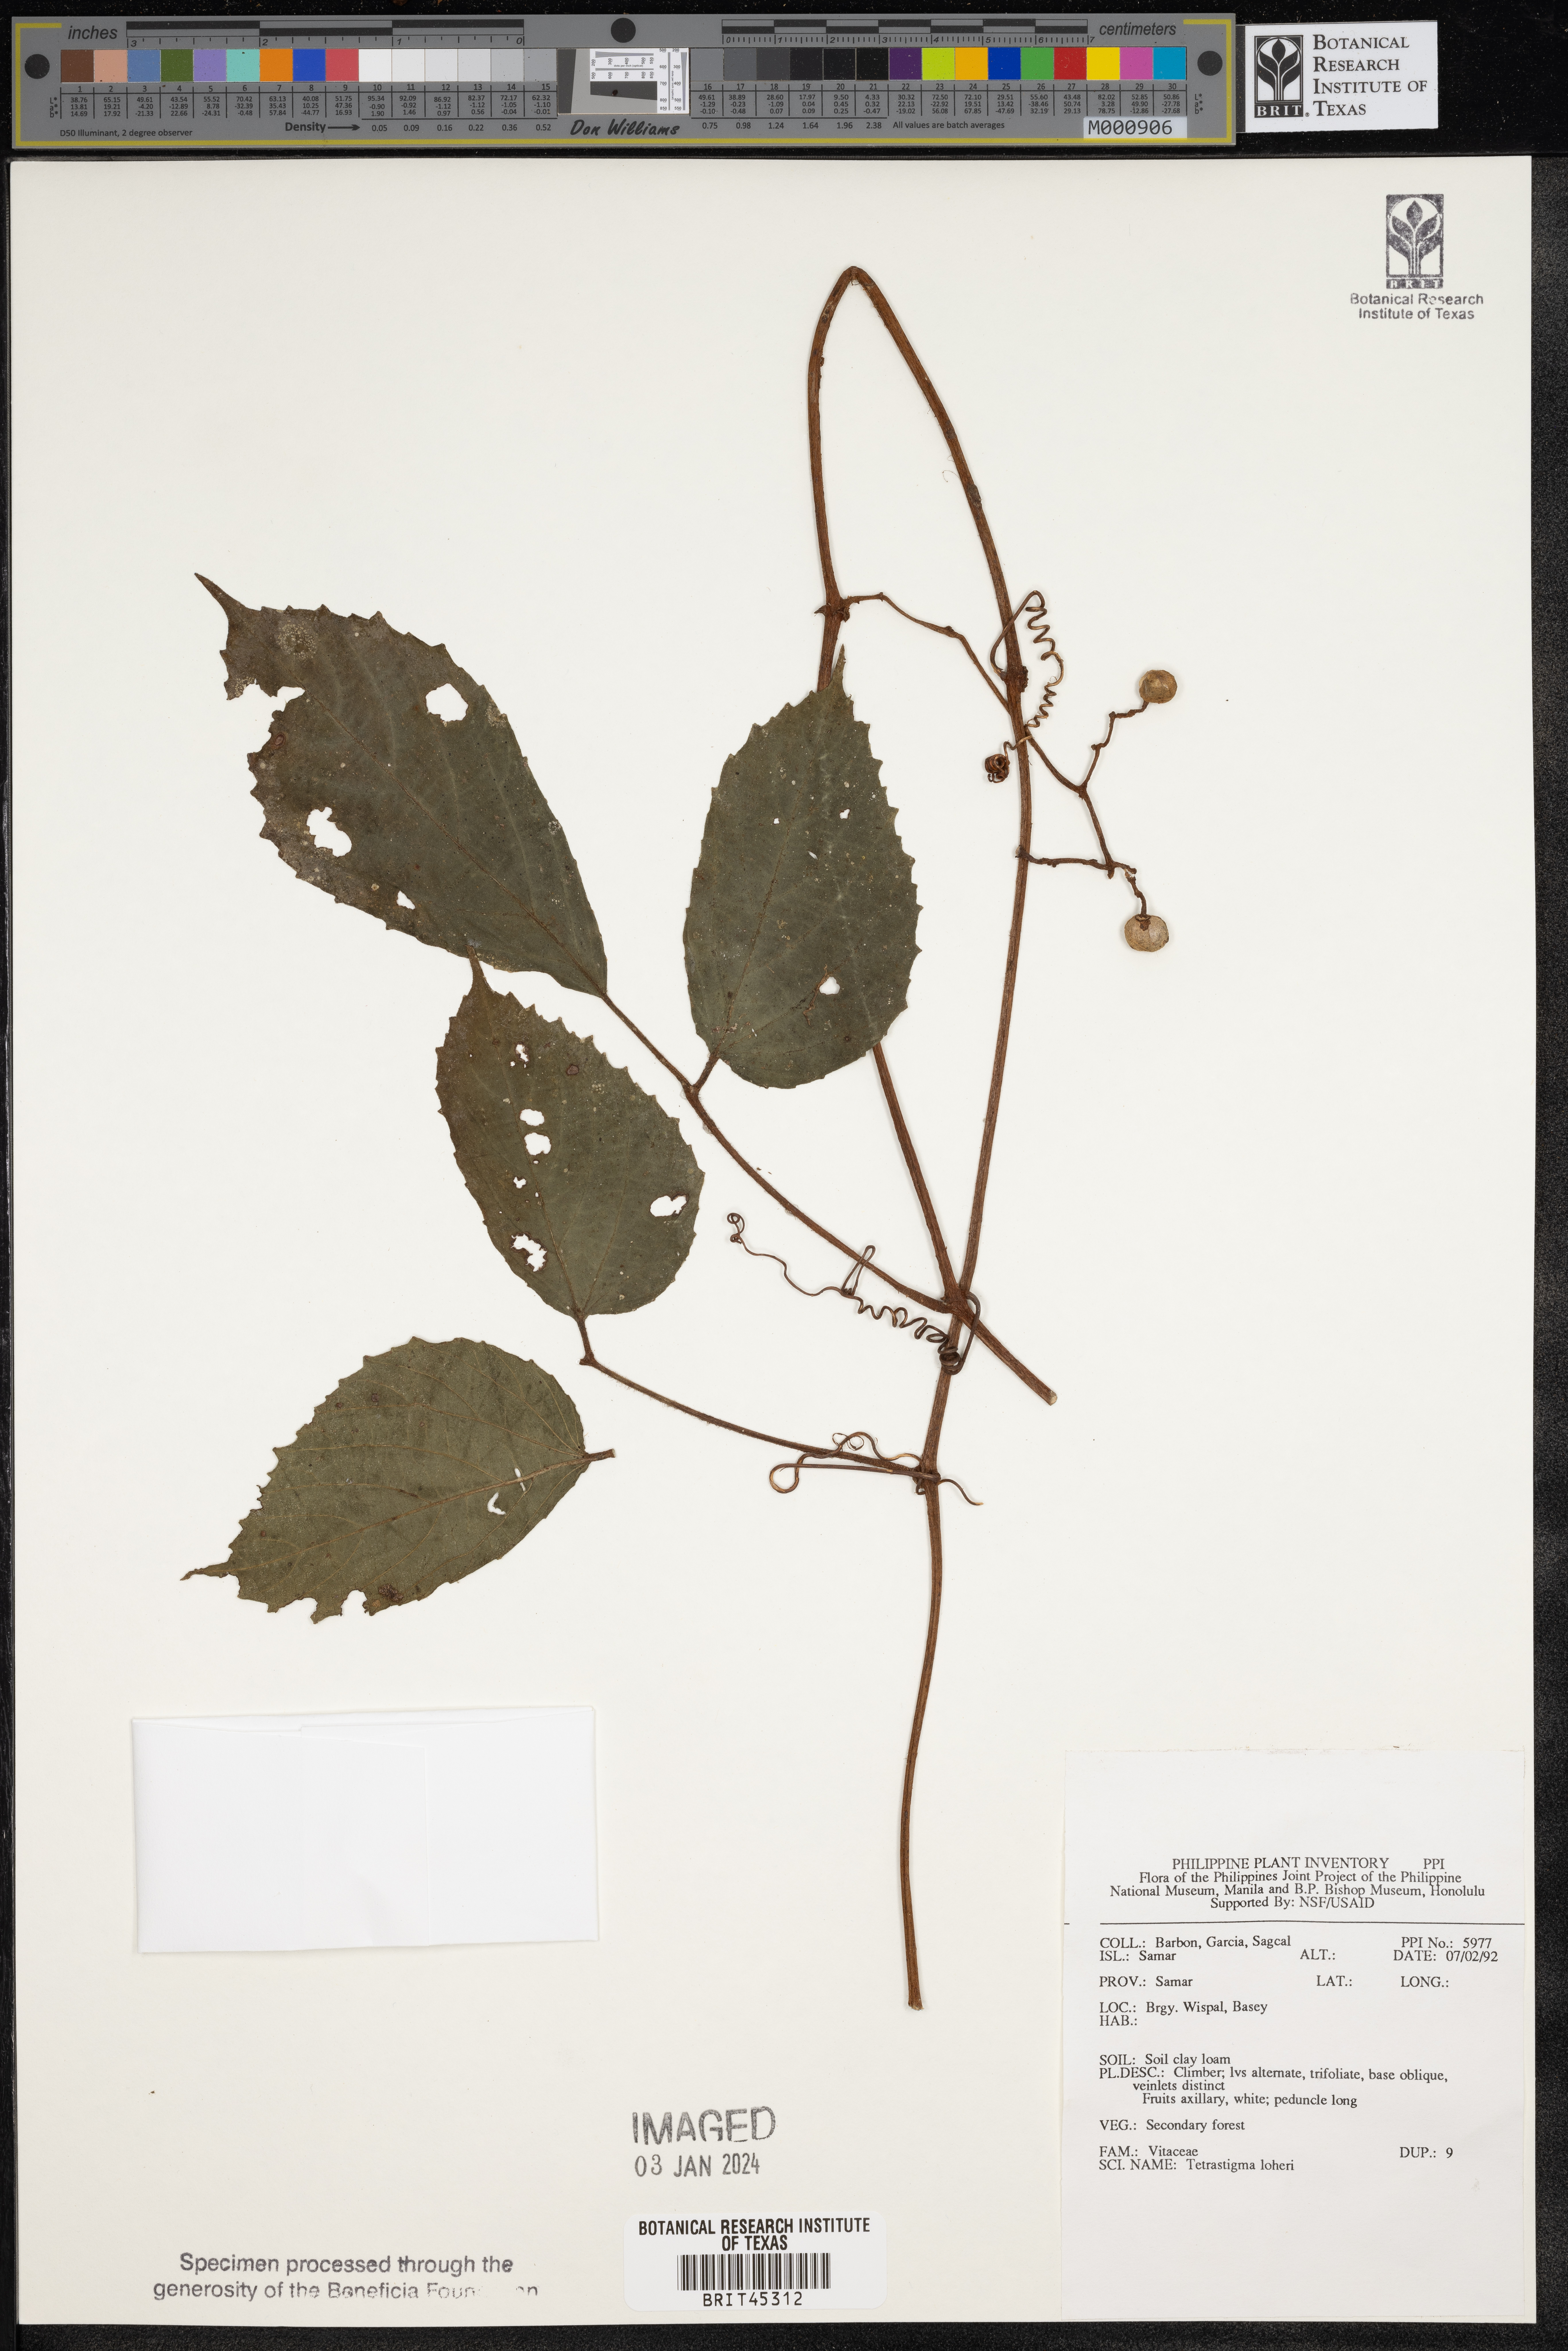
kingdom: Plantae
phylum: Tracheophyta
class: Magnoliopsida
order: Vitales
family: Vitaceae
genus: Tetrastigma
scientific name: Tetrastigma loheri
